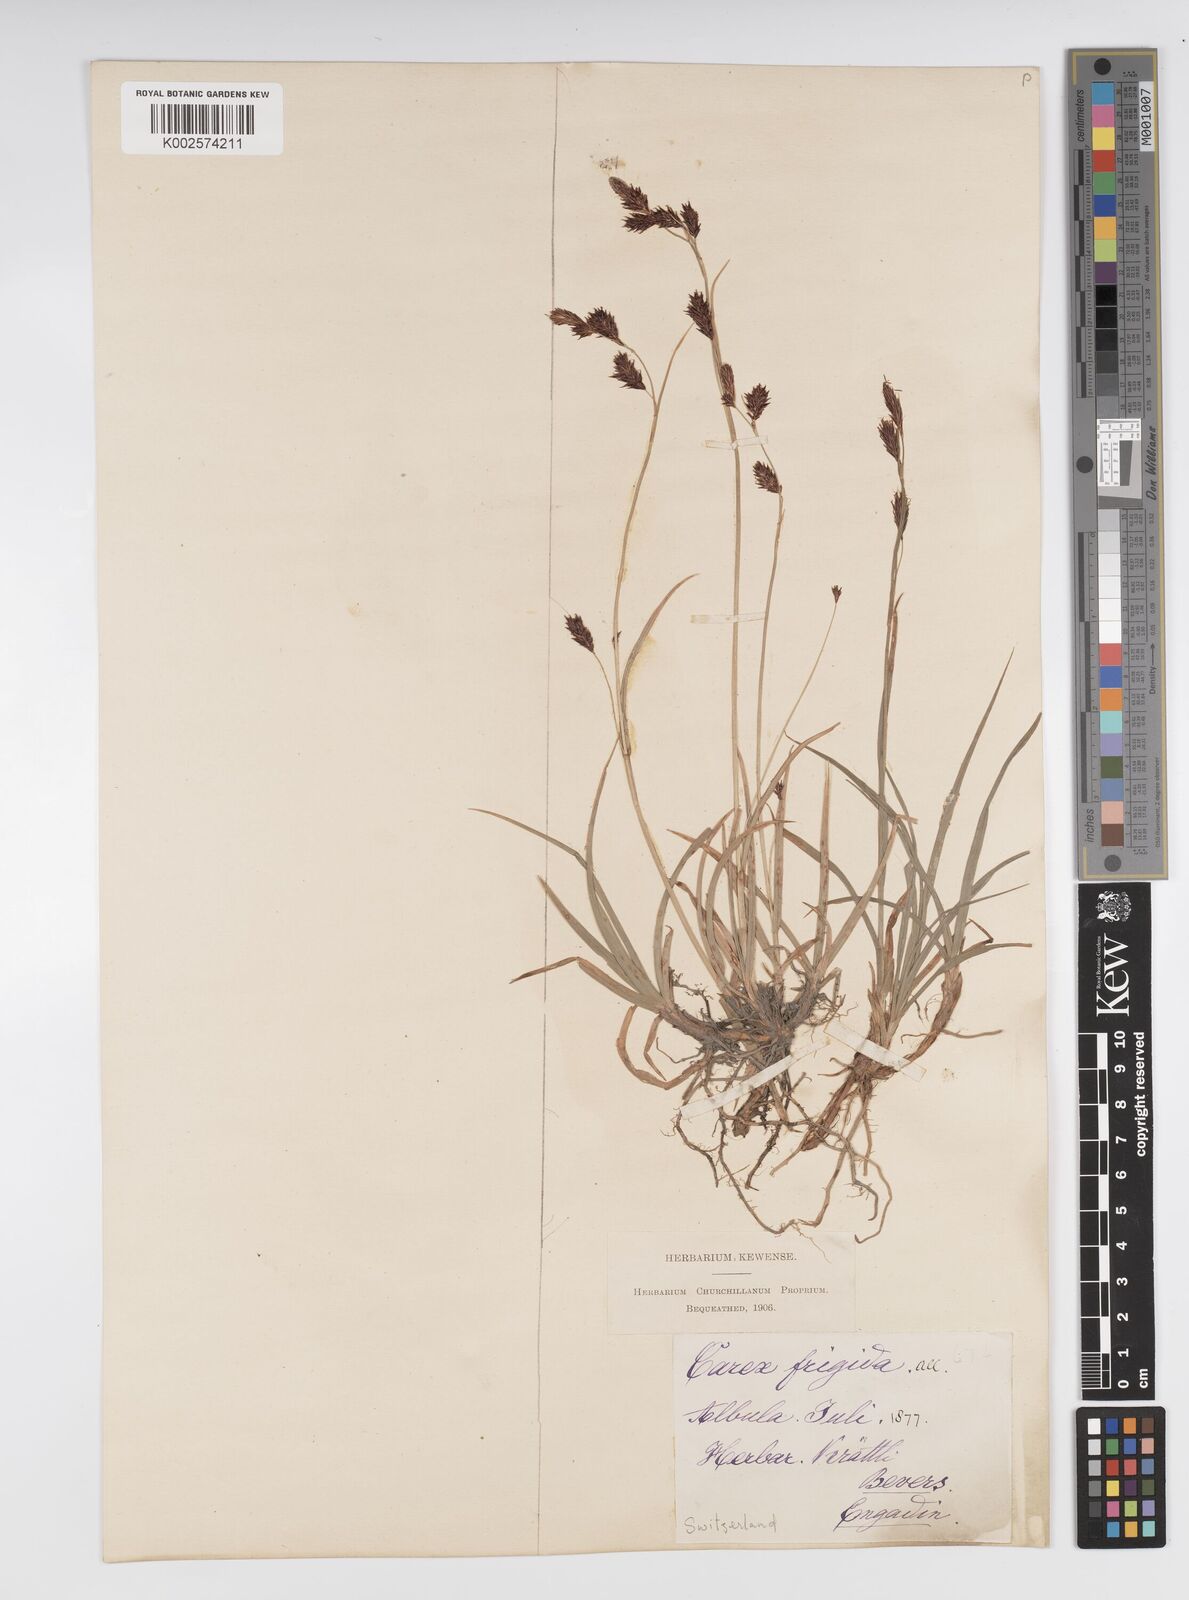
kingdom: Plantae
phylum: Tracheophyta
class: Liliopsida
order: Poales
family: Cyperaceae
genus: Carex
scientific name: Carex frigida
